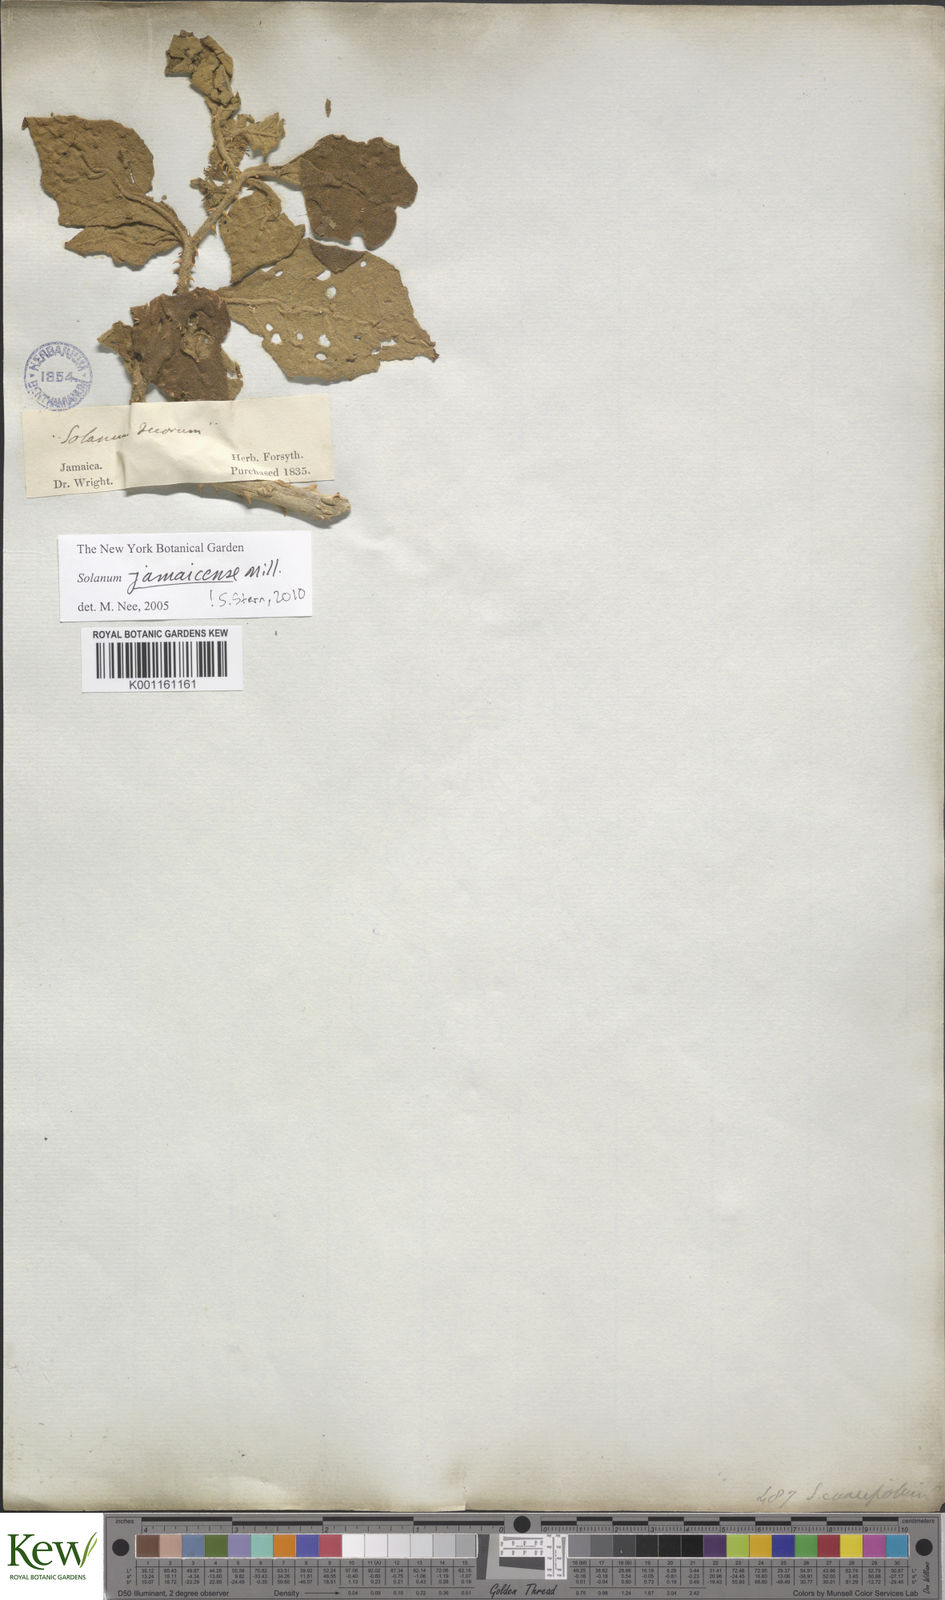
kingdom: Plantae
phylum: Tracheophyta
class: Magnoliopsida
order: Solanales
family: Solanaceae
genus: Solanum
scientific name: Solanum jamaicense
